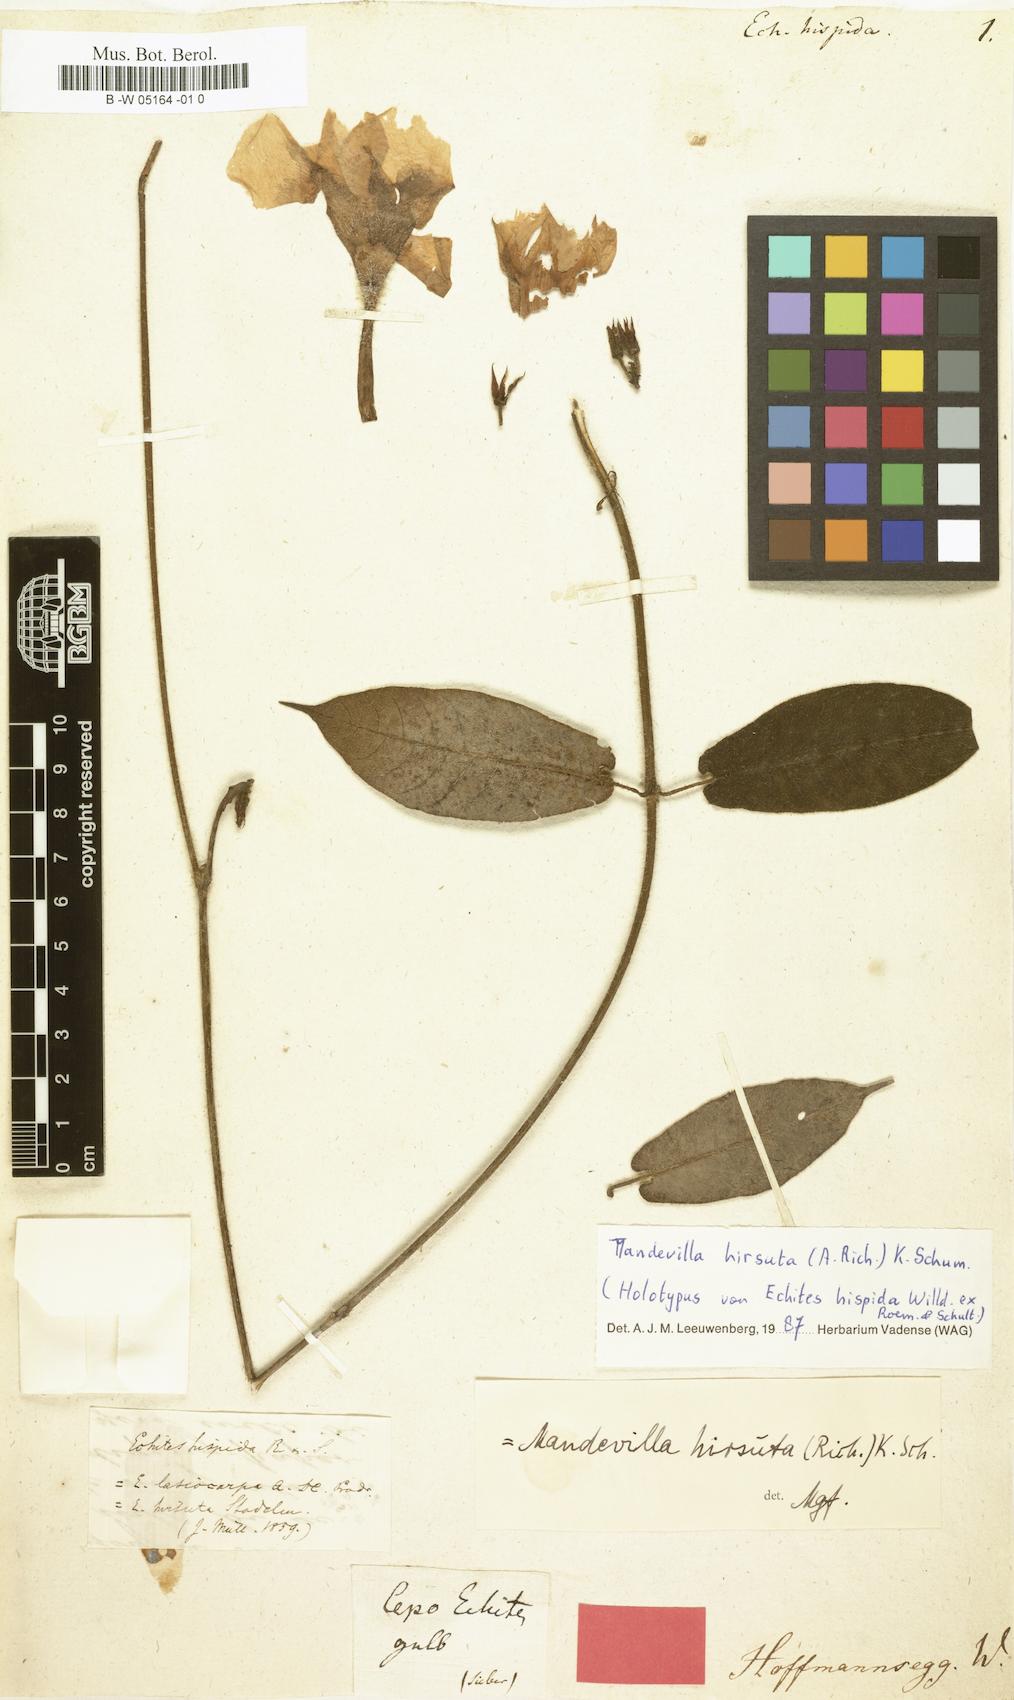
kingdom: Plantae
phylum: Tracheophyta
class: Magnoliopsida
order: Gentianales
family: Apocynaceae
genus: Mandevilla
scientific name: Mandevilla hirsuta
